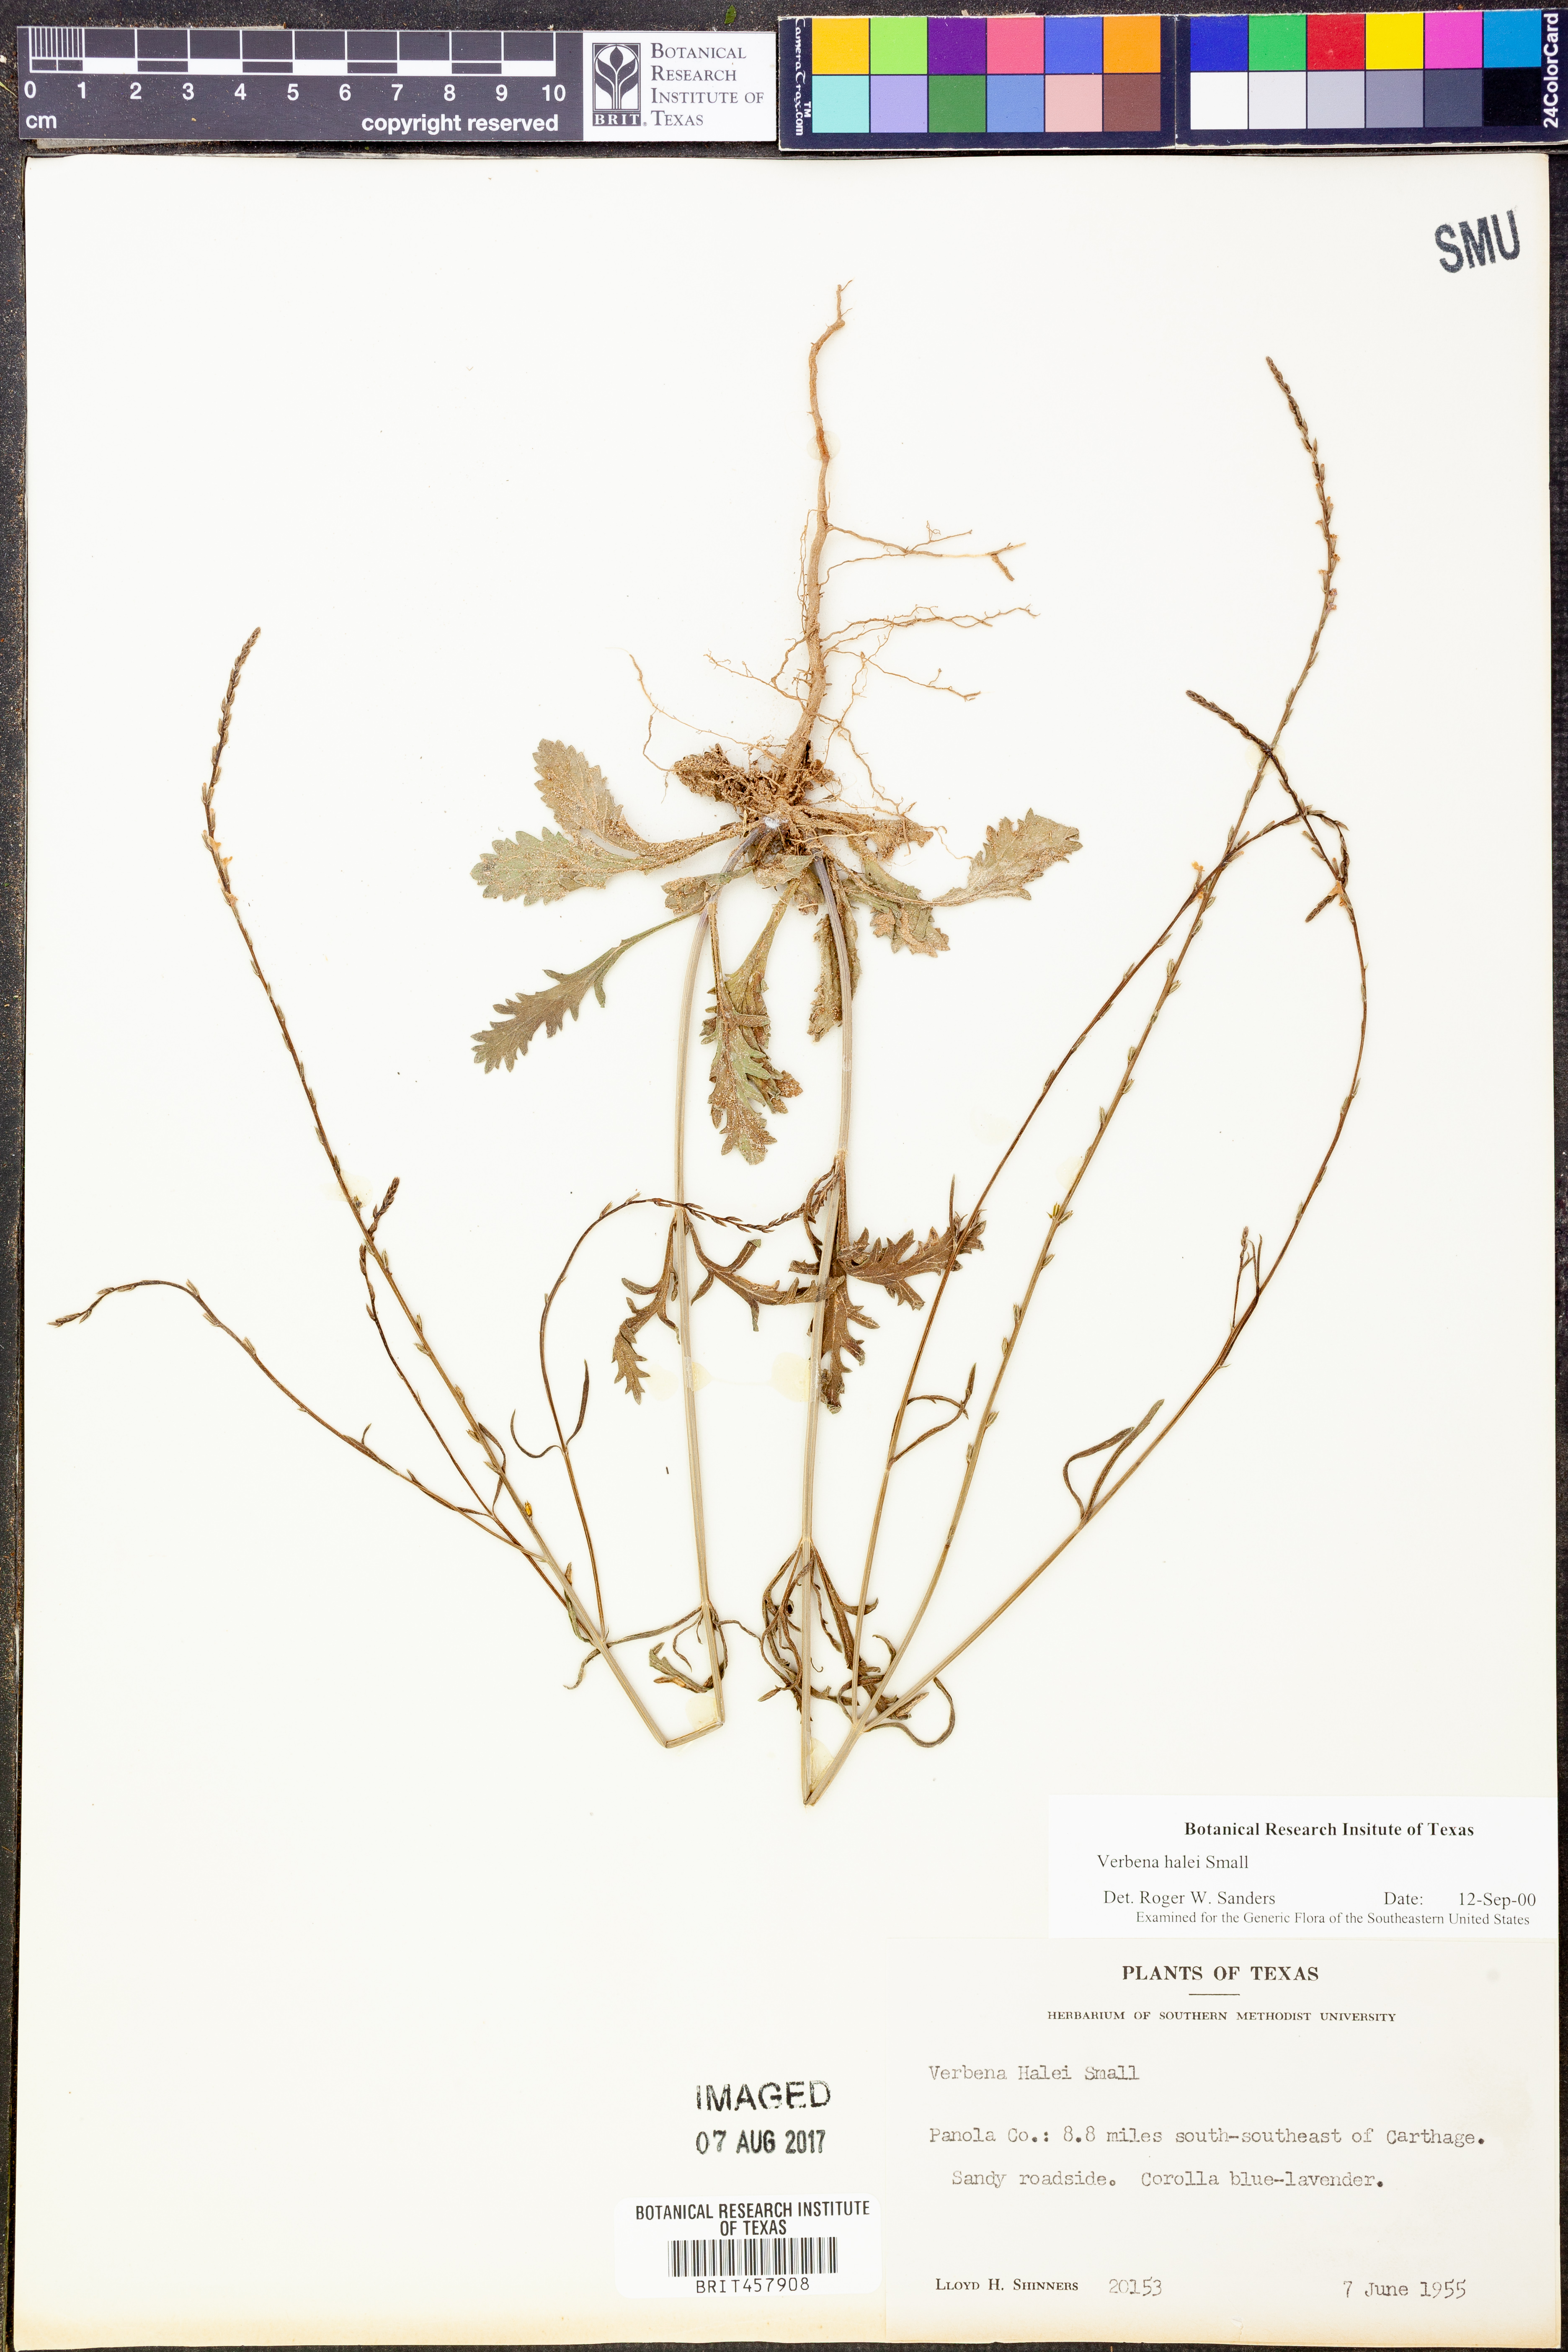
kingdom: Plantae
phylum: Tracheophyta
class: Magnoliopsida
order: Lamiales
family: Verbenaceae
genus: Verbena
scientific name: Verbena halei
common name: Texas vervain
